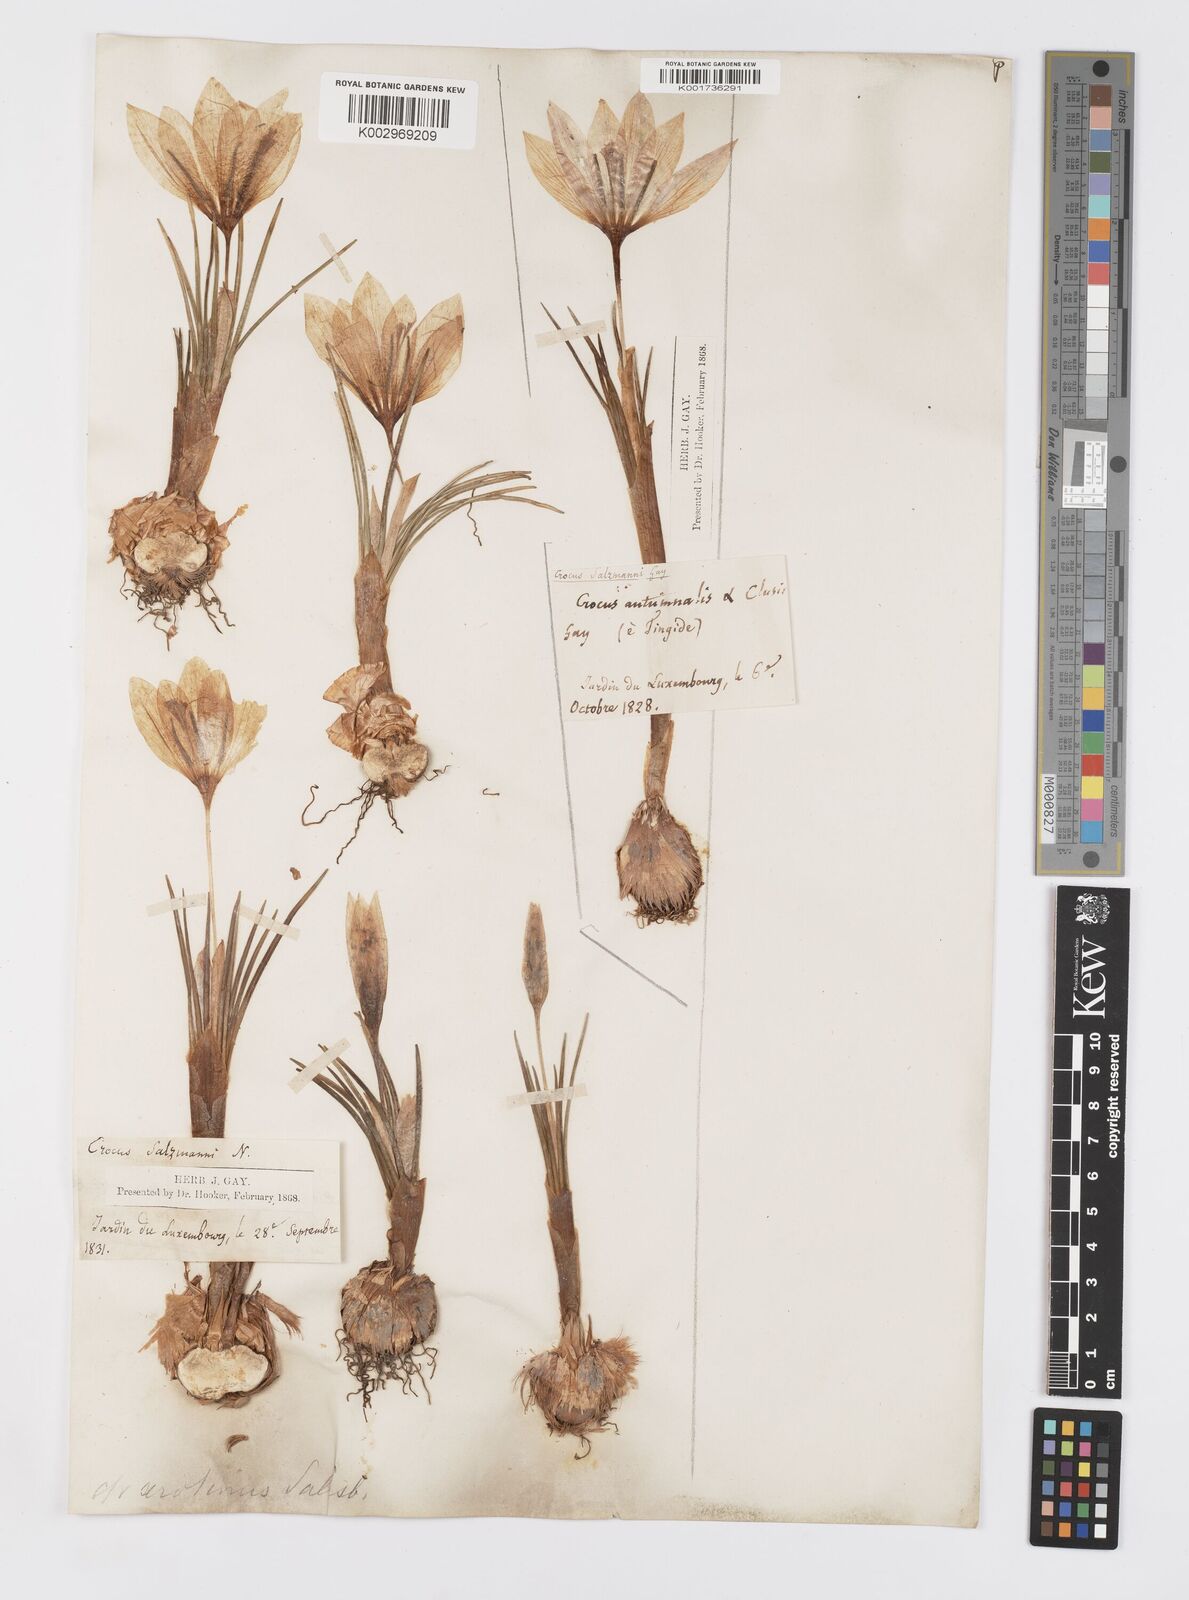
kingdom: Plantae
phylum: Tracheophyta
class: Liliopsida
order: Asparagales
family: Iridaceae
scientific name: Iridaceae
